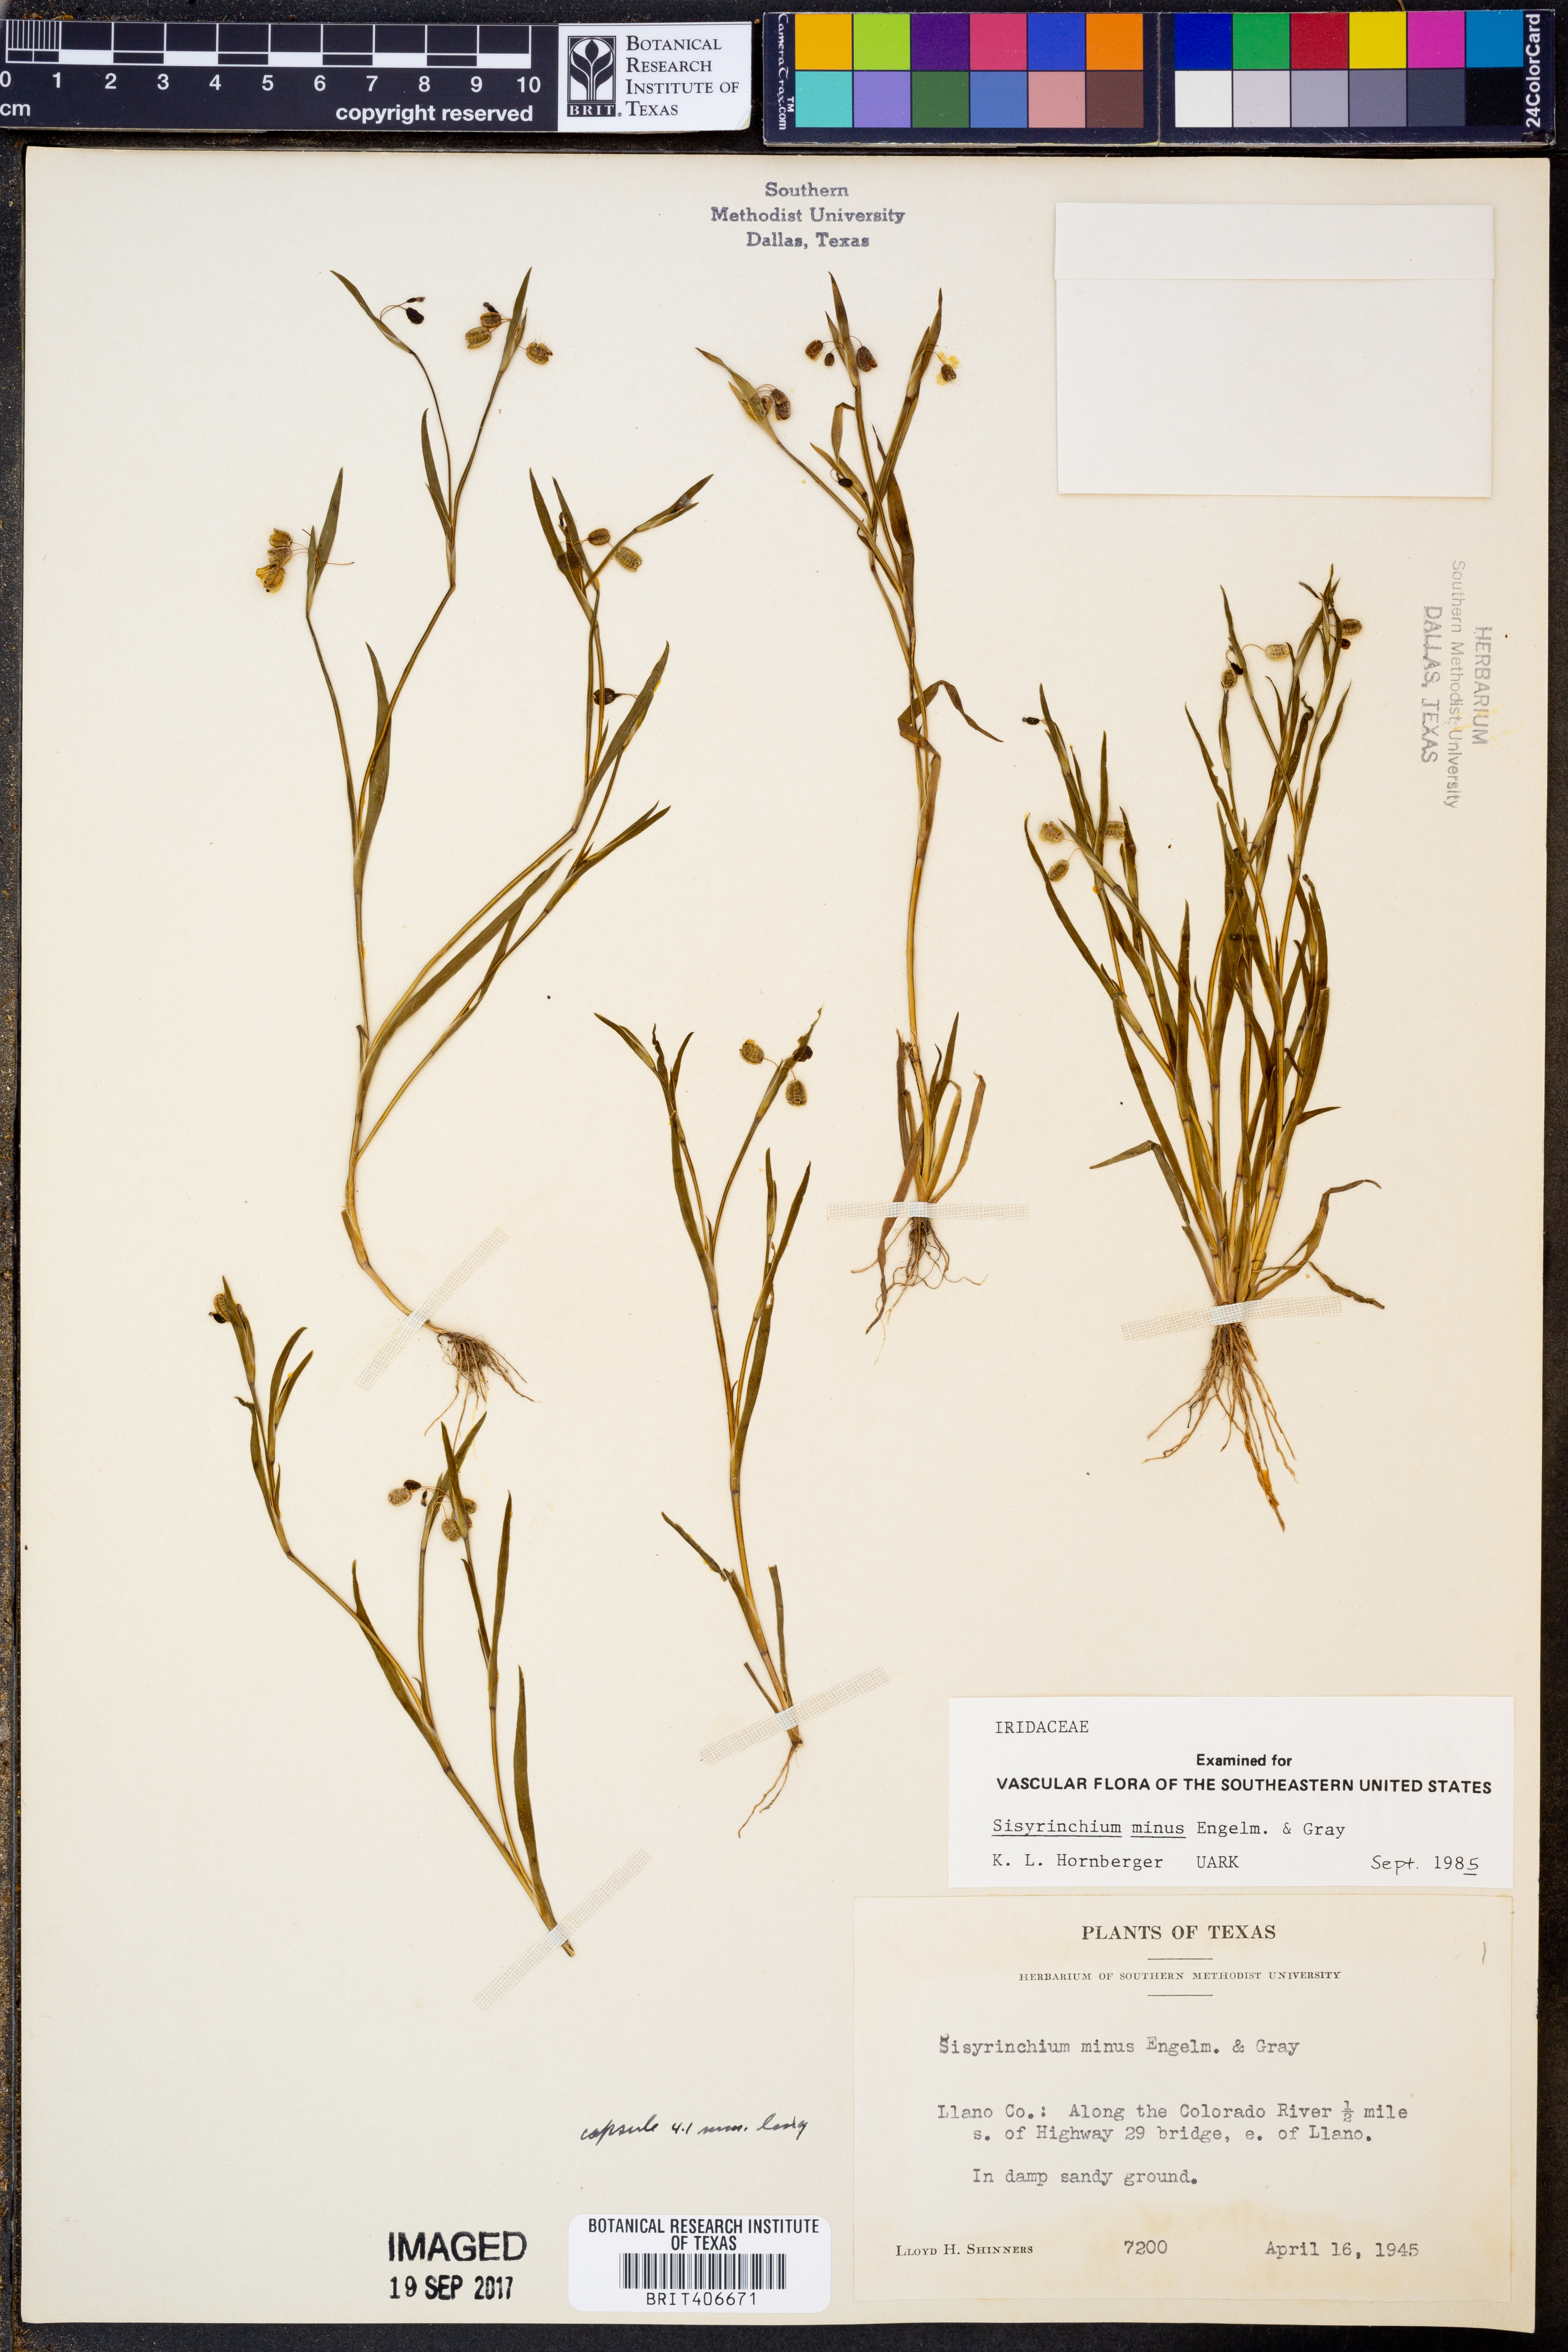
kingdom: Plantae
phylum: Tracheophyta
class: Liliopsida
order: Asparagales
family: Iridaceae
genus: Sisyrinchium
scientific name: Sisyrinchium minus
